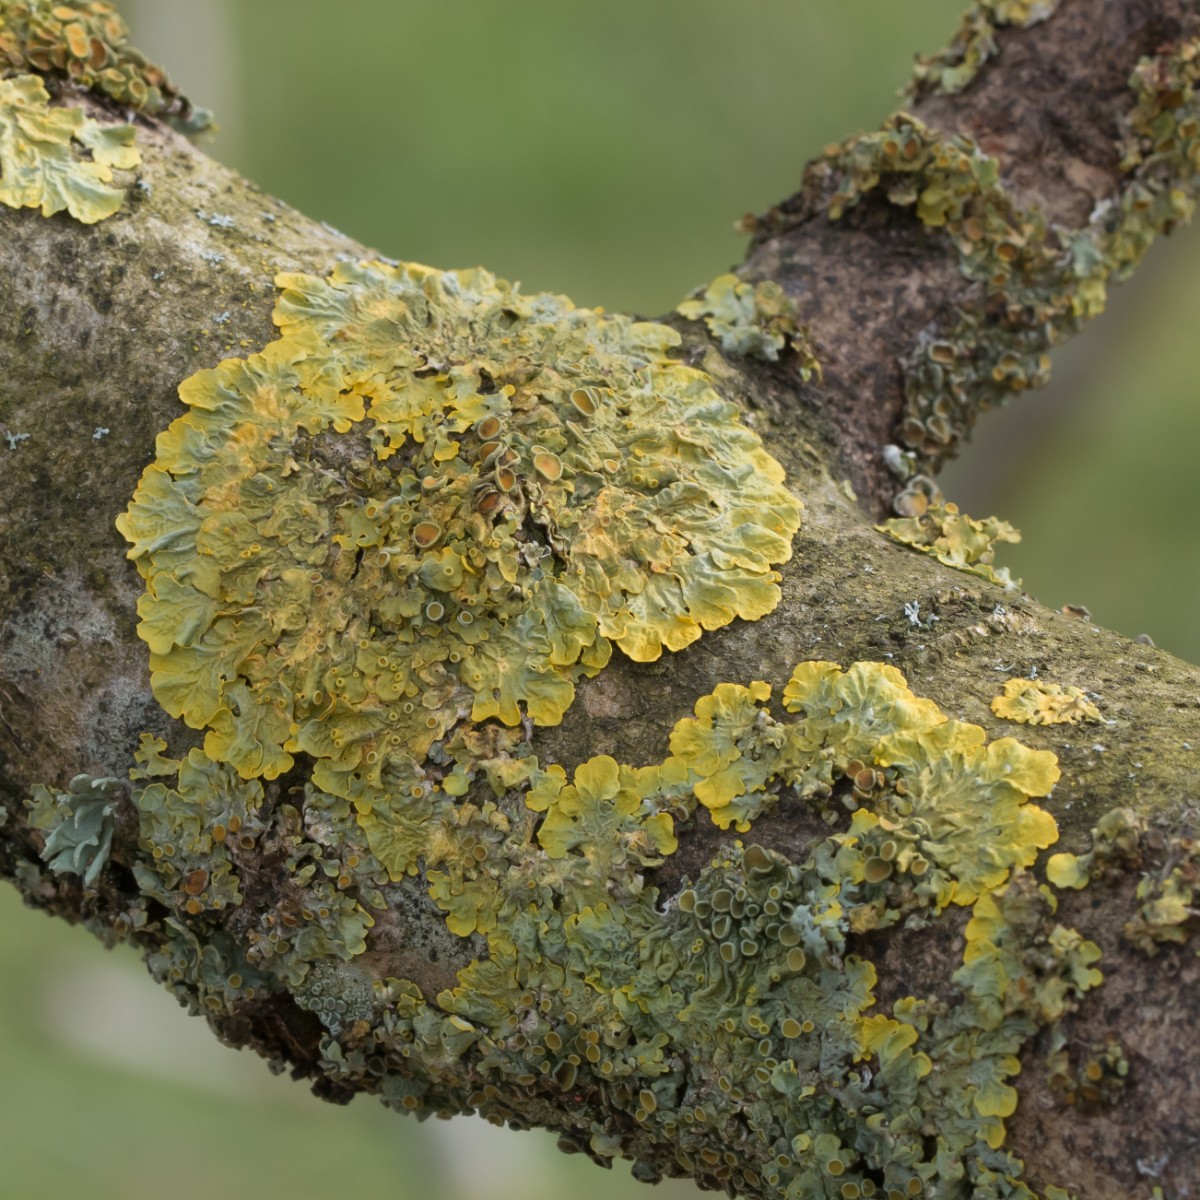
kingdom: Fungi
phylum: Ascomycota
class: Lecanoromycetes
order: Teloschistales
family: Teloschistaceae
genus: Xanthoria
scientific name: Xanthoria parietina
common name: almindelig væggelav
